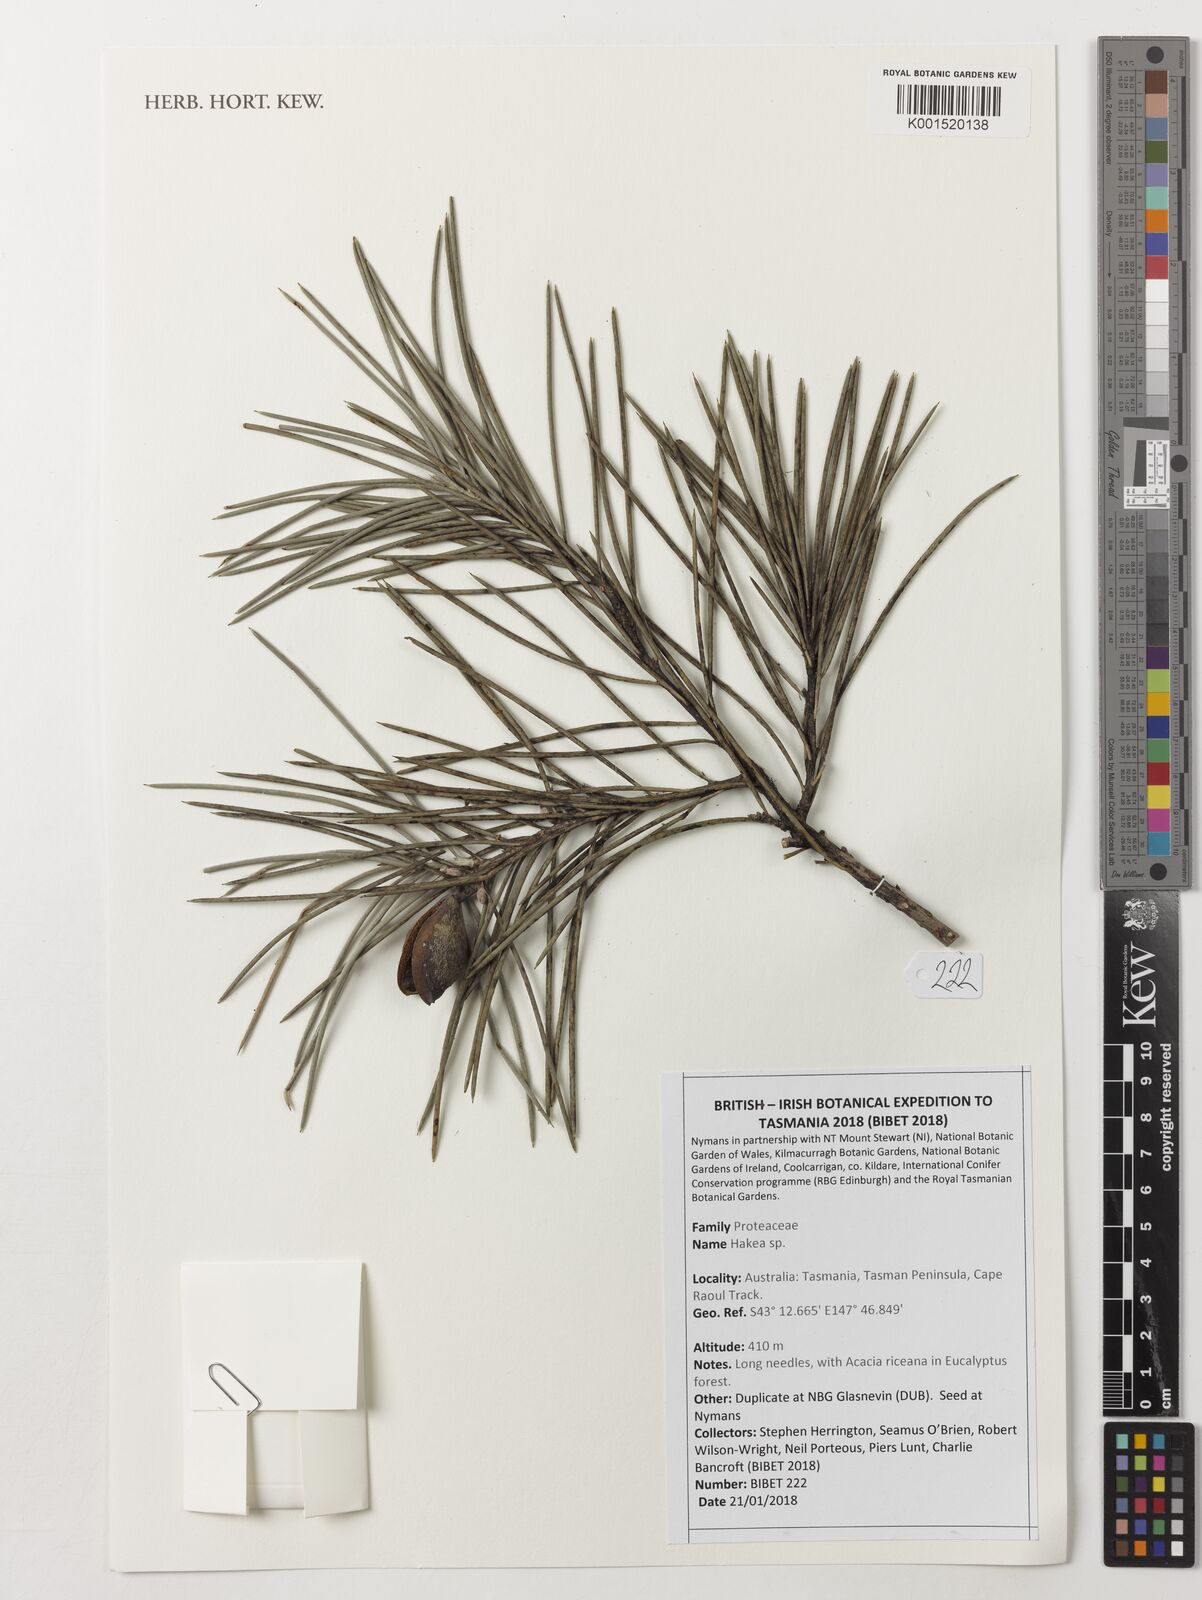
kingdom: Plantae
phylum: Tracheophyta
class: Magnoliopsida
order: Proteales
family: Proteaceae
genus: Hakea
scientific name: Hakea
